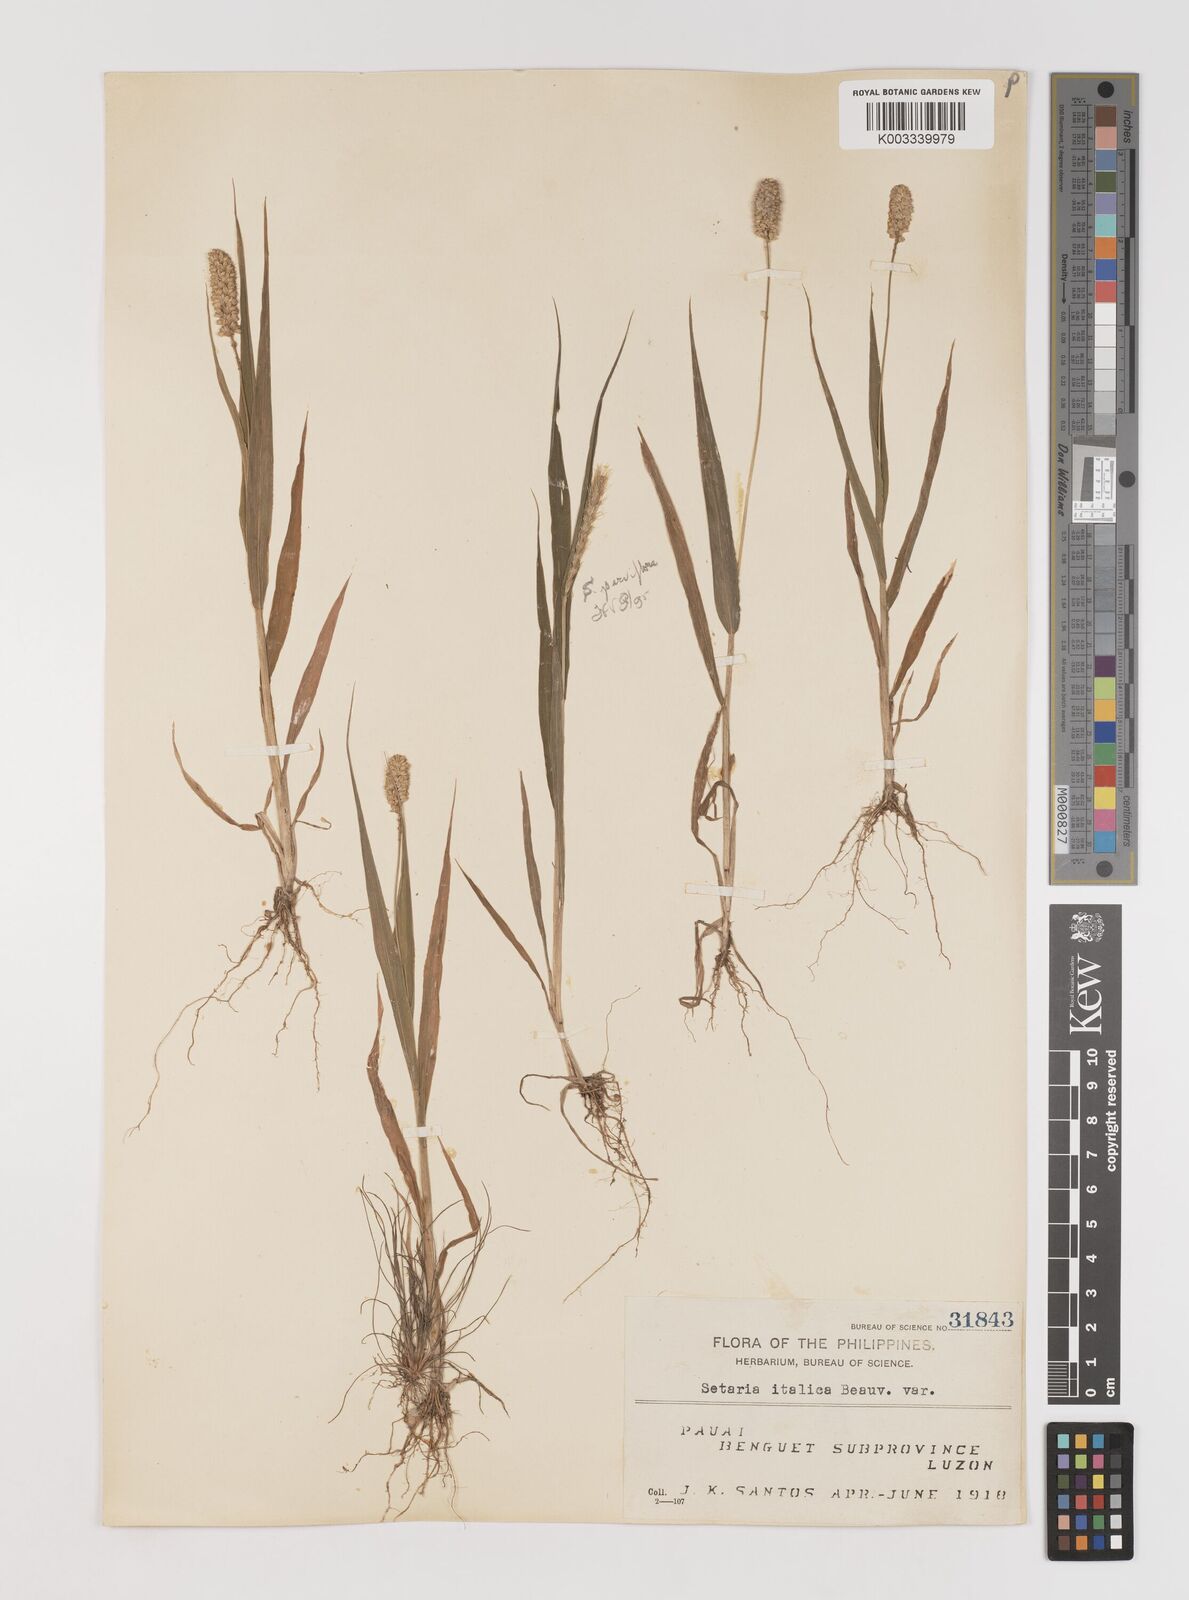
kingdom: Plantae
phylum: Tracheophyta
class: Liliopsida
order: Poales
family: Poaceae
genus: Setaria
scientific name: Setaria italica
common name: Foxtail bristle-grass
